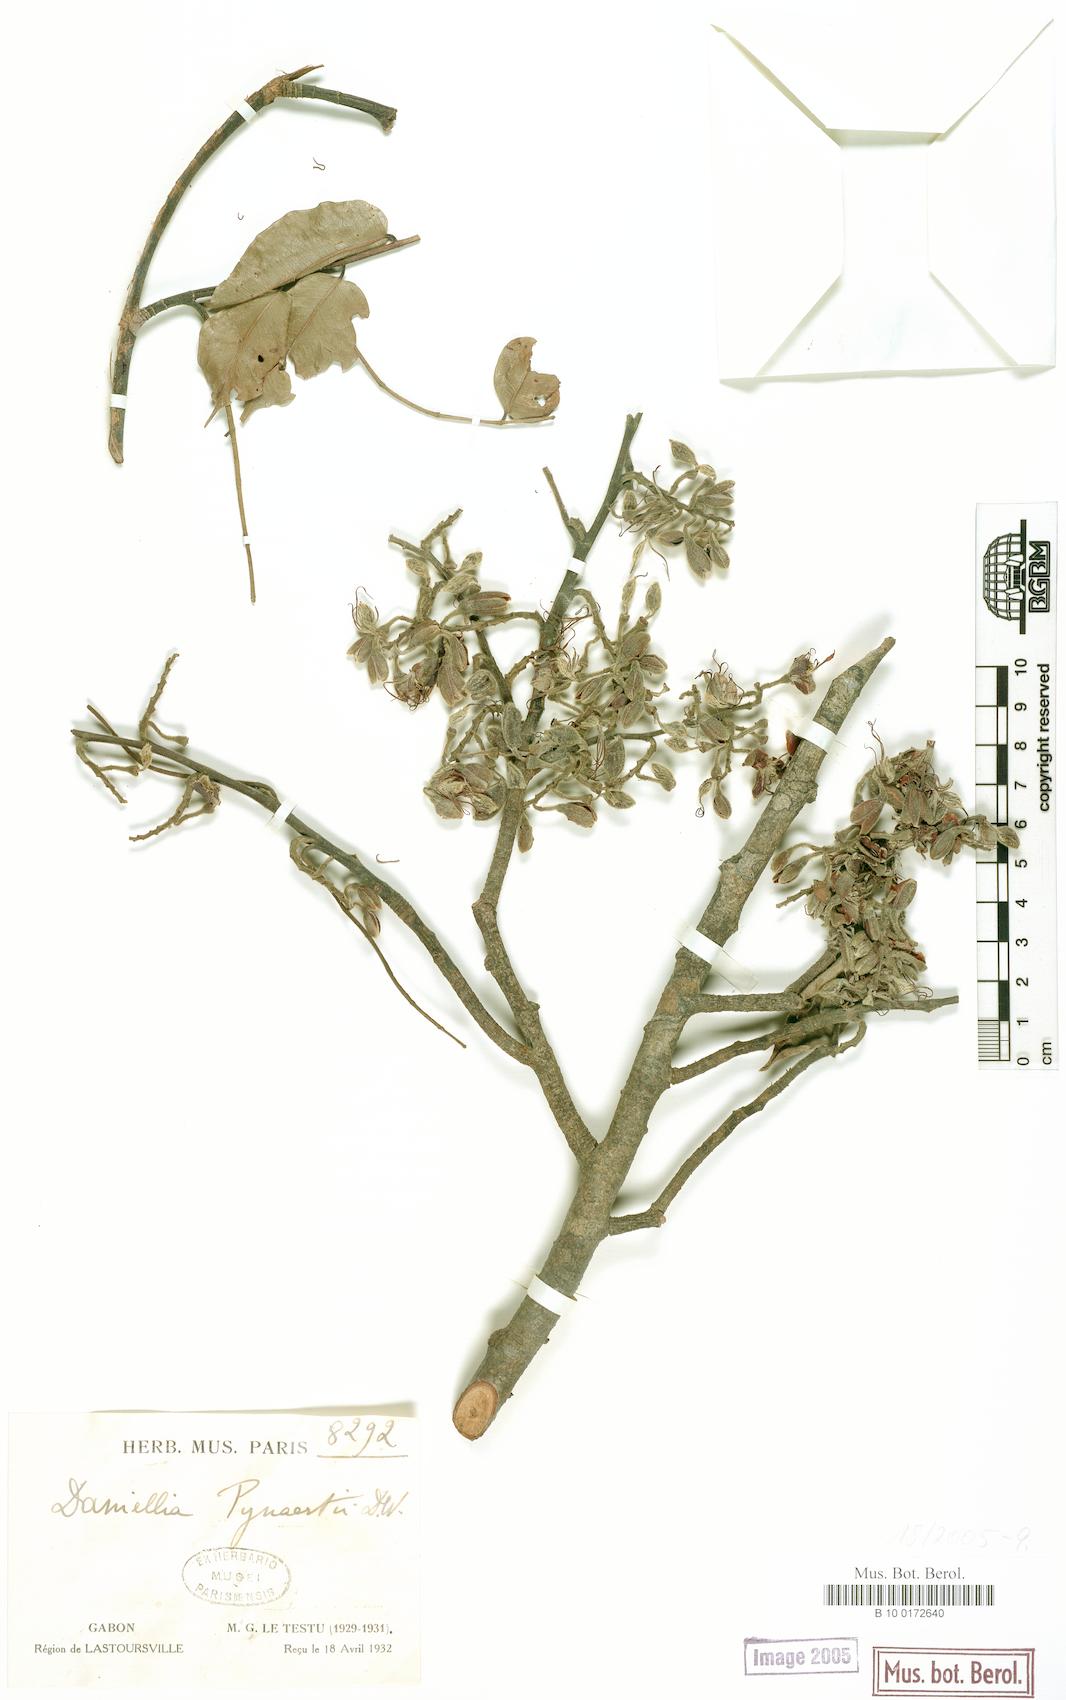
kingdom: Plantae
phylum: Tracheophyta
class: Magnoliopsida
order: Fabales
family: Fabaceae
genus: Daniellia
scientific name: Daniellia pilosa
